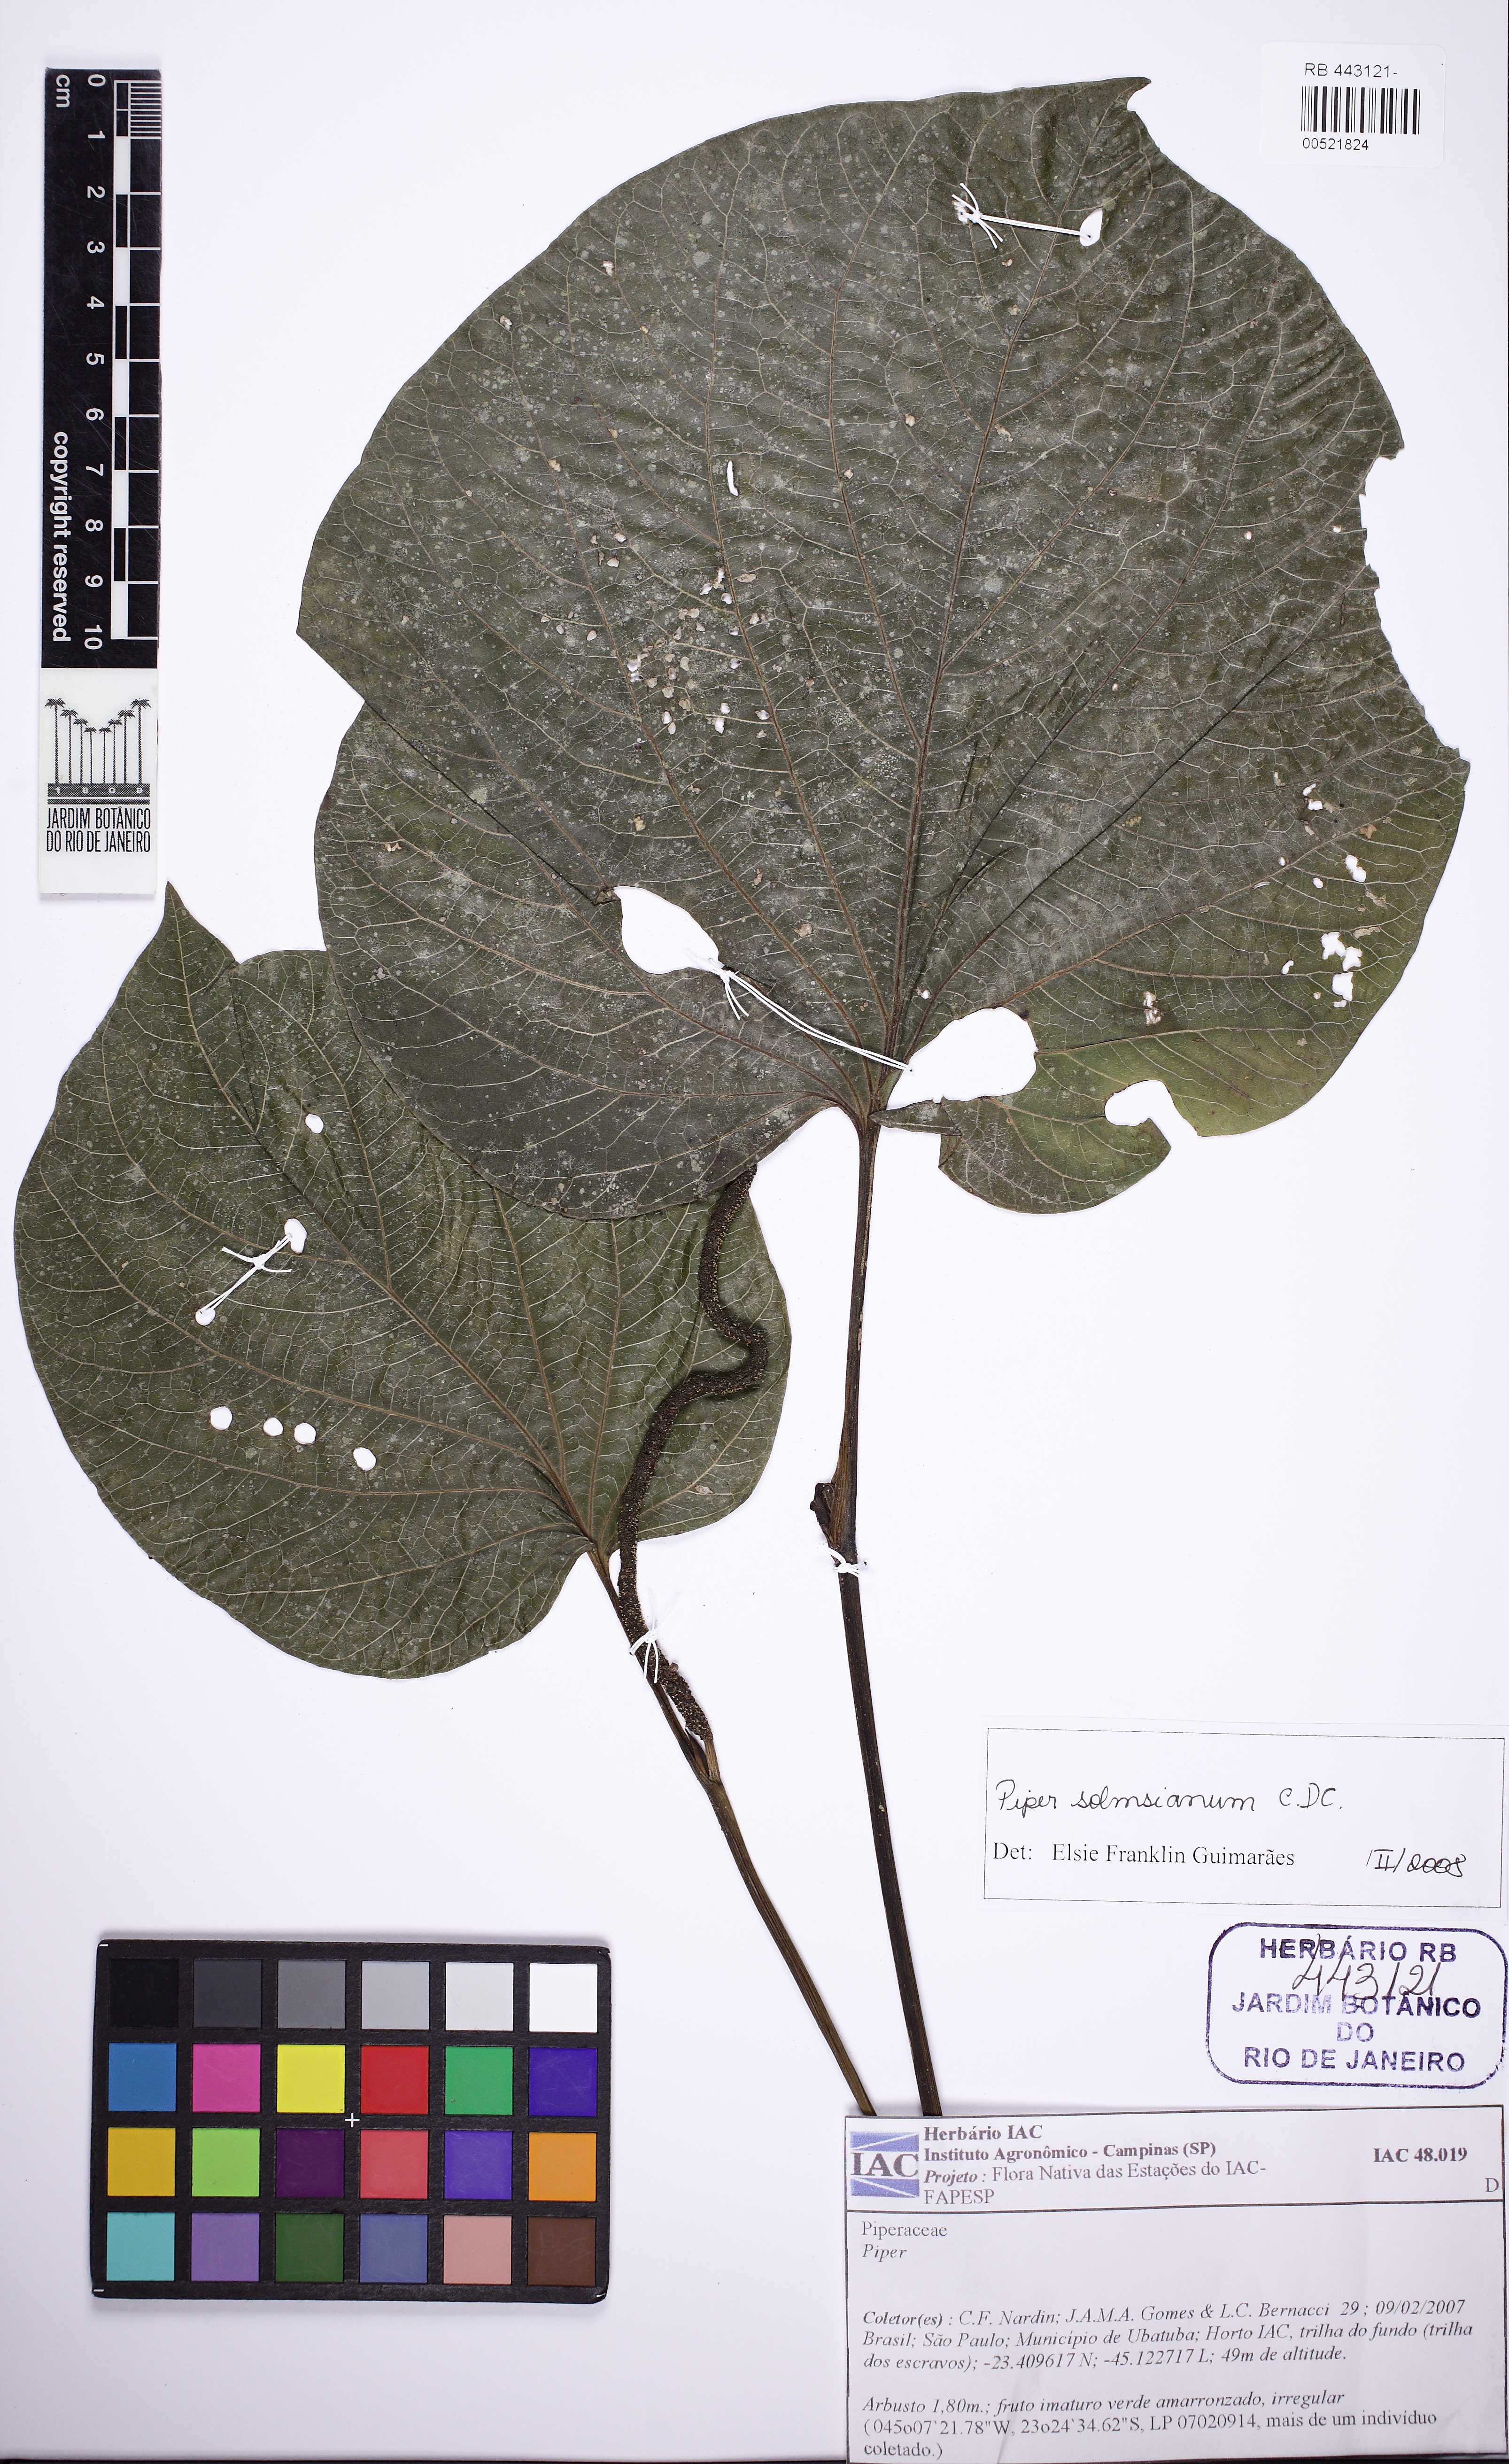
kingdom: Plantae
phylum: Tracheophyta
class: Magnoliopsida
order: Piperales
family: Piperaceae
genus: Piper
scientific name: Piper solmsianum
